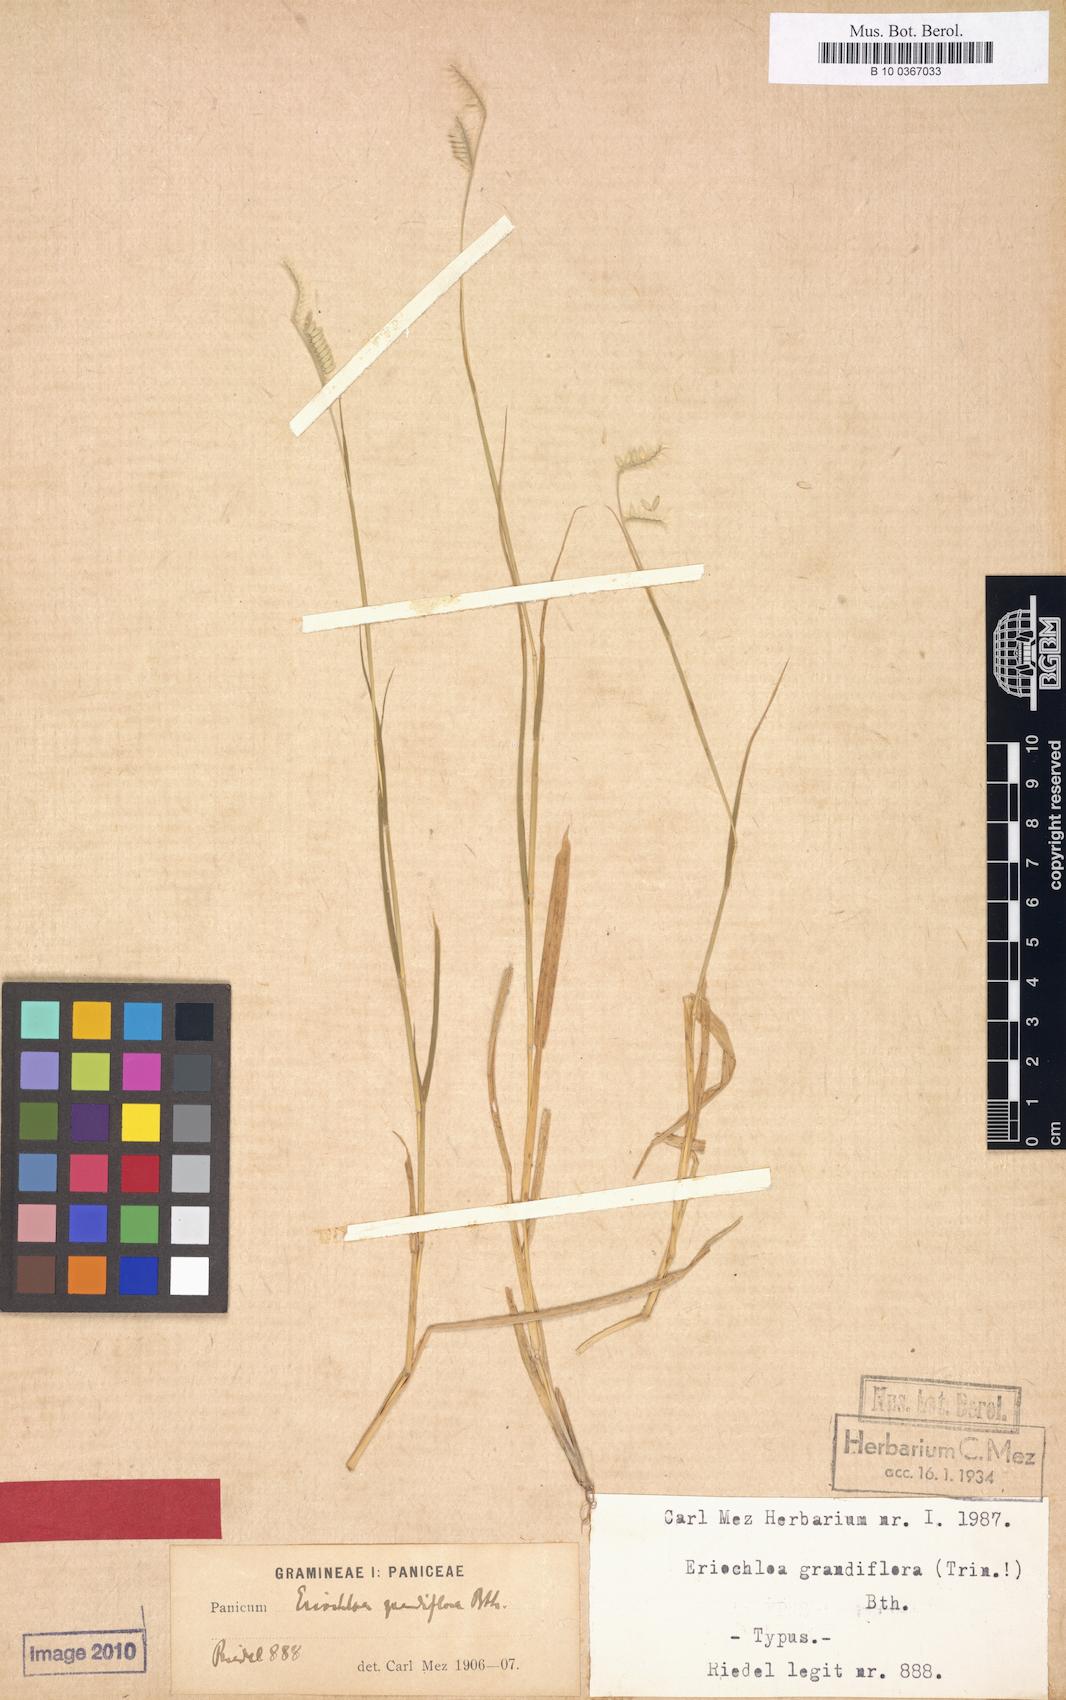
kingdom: Plantae
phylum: Tracheophyta
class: Liliopsida
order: Poales
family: Poaceae
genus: Eriochloa
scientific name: Eriochloa grandiflora
